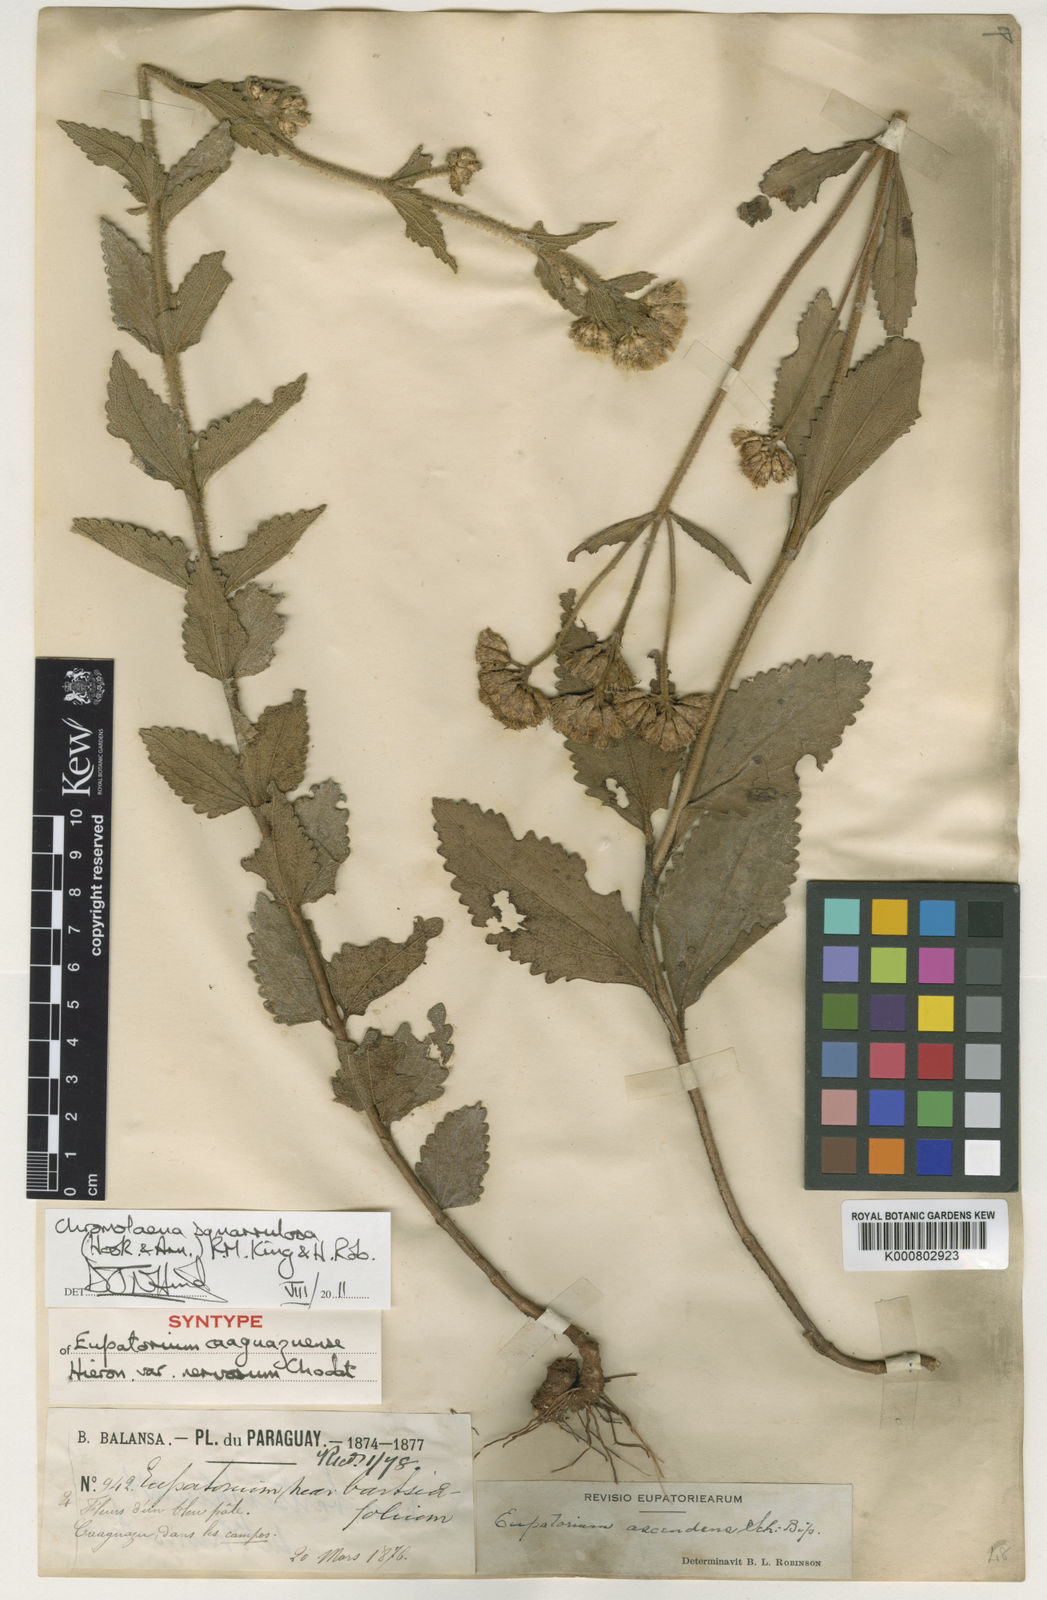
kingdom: Plantae
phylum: Tracheophyta
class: Magnoliopsida
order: Asterales
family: Asteraceae
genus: Chromolaena
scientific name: Chromolaena squarrulosa
